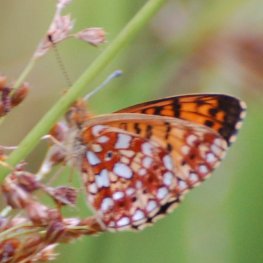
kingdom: Animalia
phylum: Arthropoda
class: Insecta
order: Lepidoptera
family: Nymphalidae
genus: Boloria
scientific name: Boloria selene
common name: Silver-bordered Fritillary
